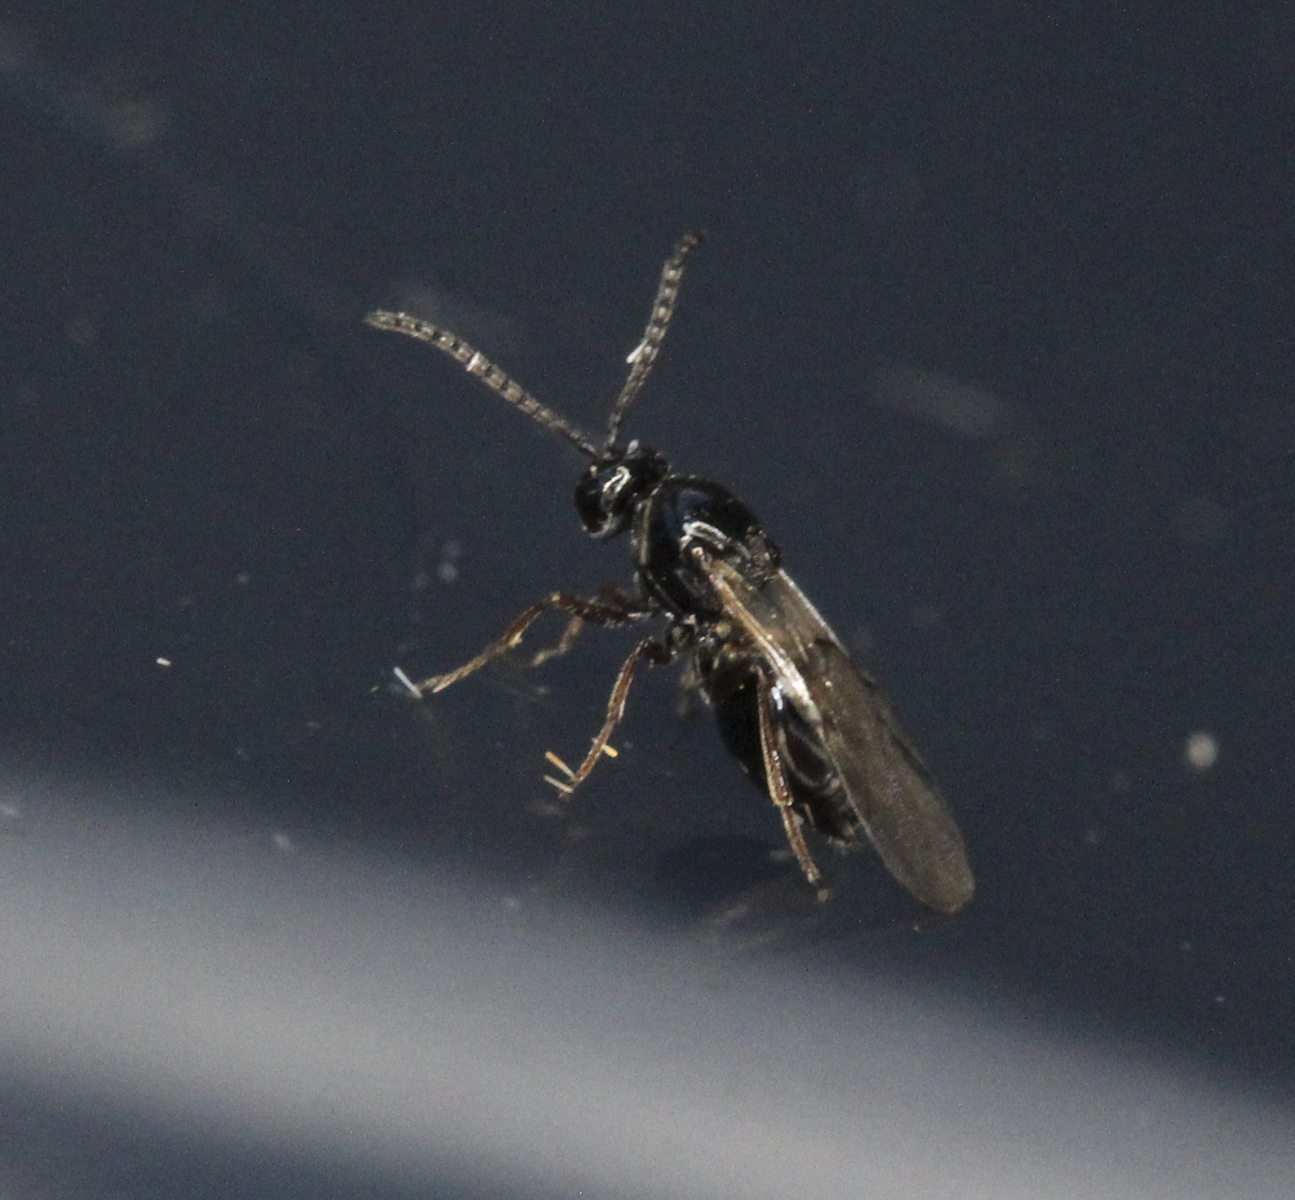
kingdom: Animalia
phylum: Arthropoda
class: Insecta
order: Diptera
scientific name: Diptera
